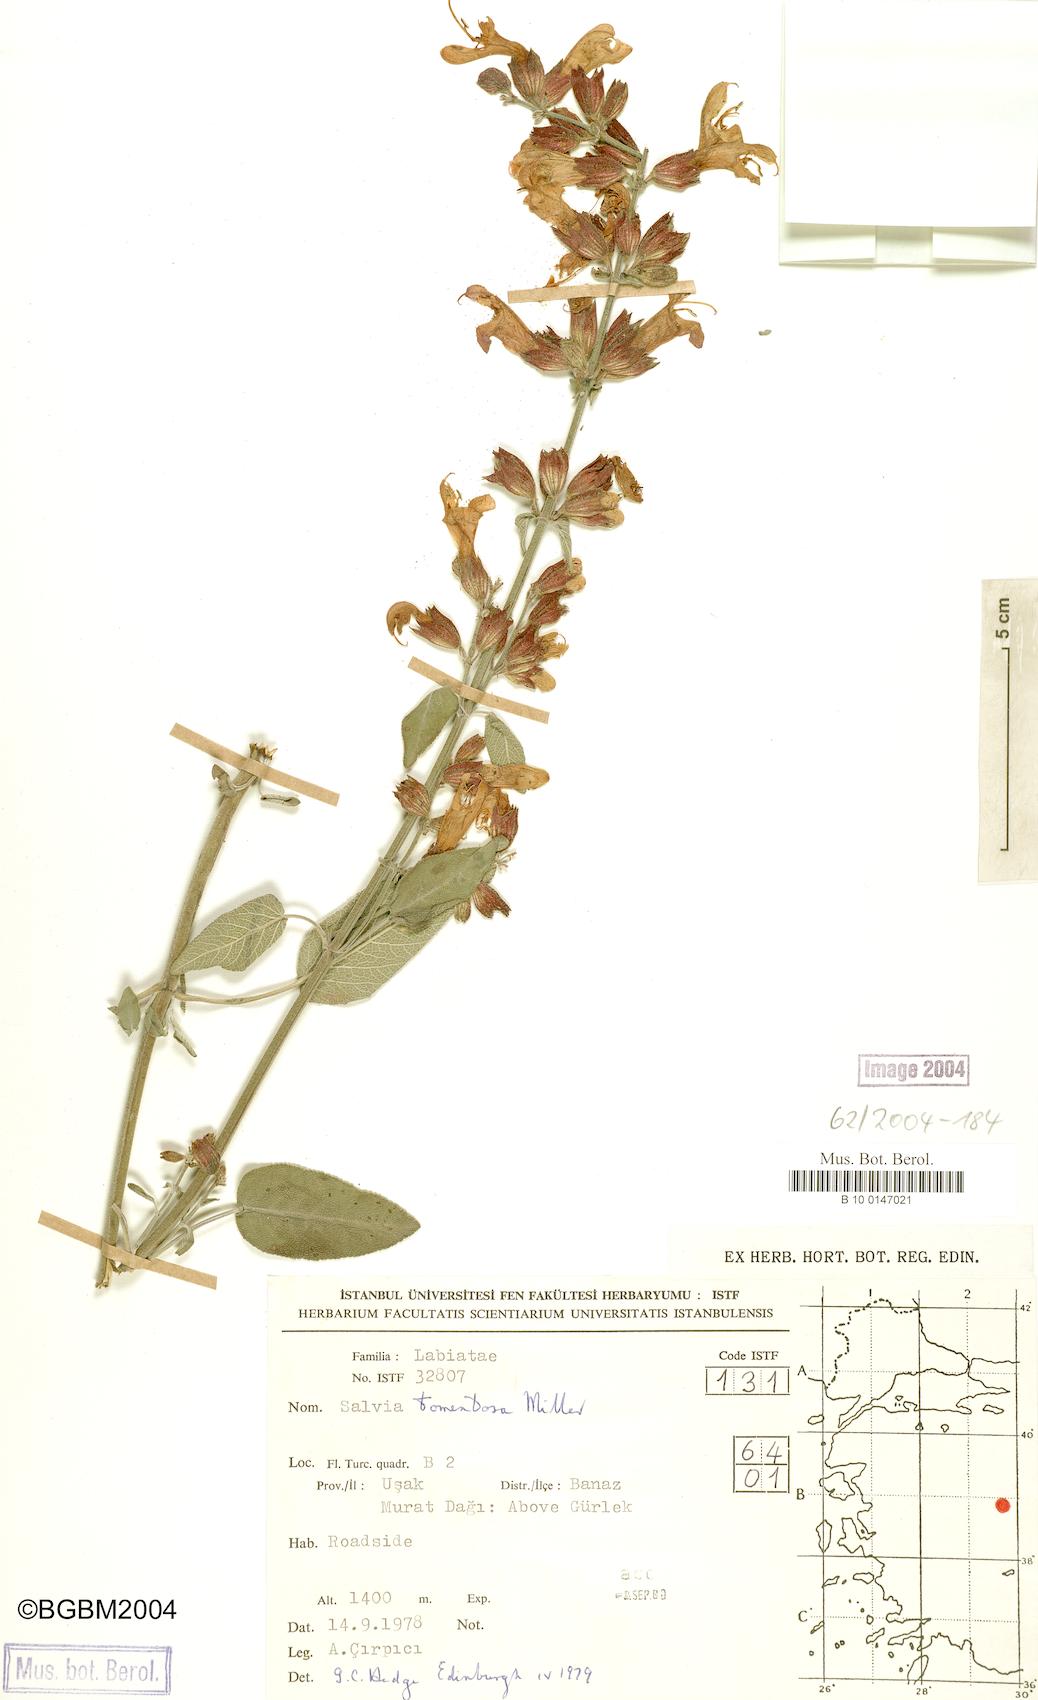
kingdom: Plantae
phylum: Tracheophyta
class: Magnoliopsida
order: Lamiales
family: Lamiaceae
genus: Salvia
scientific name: Salvia tomentosa
